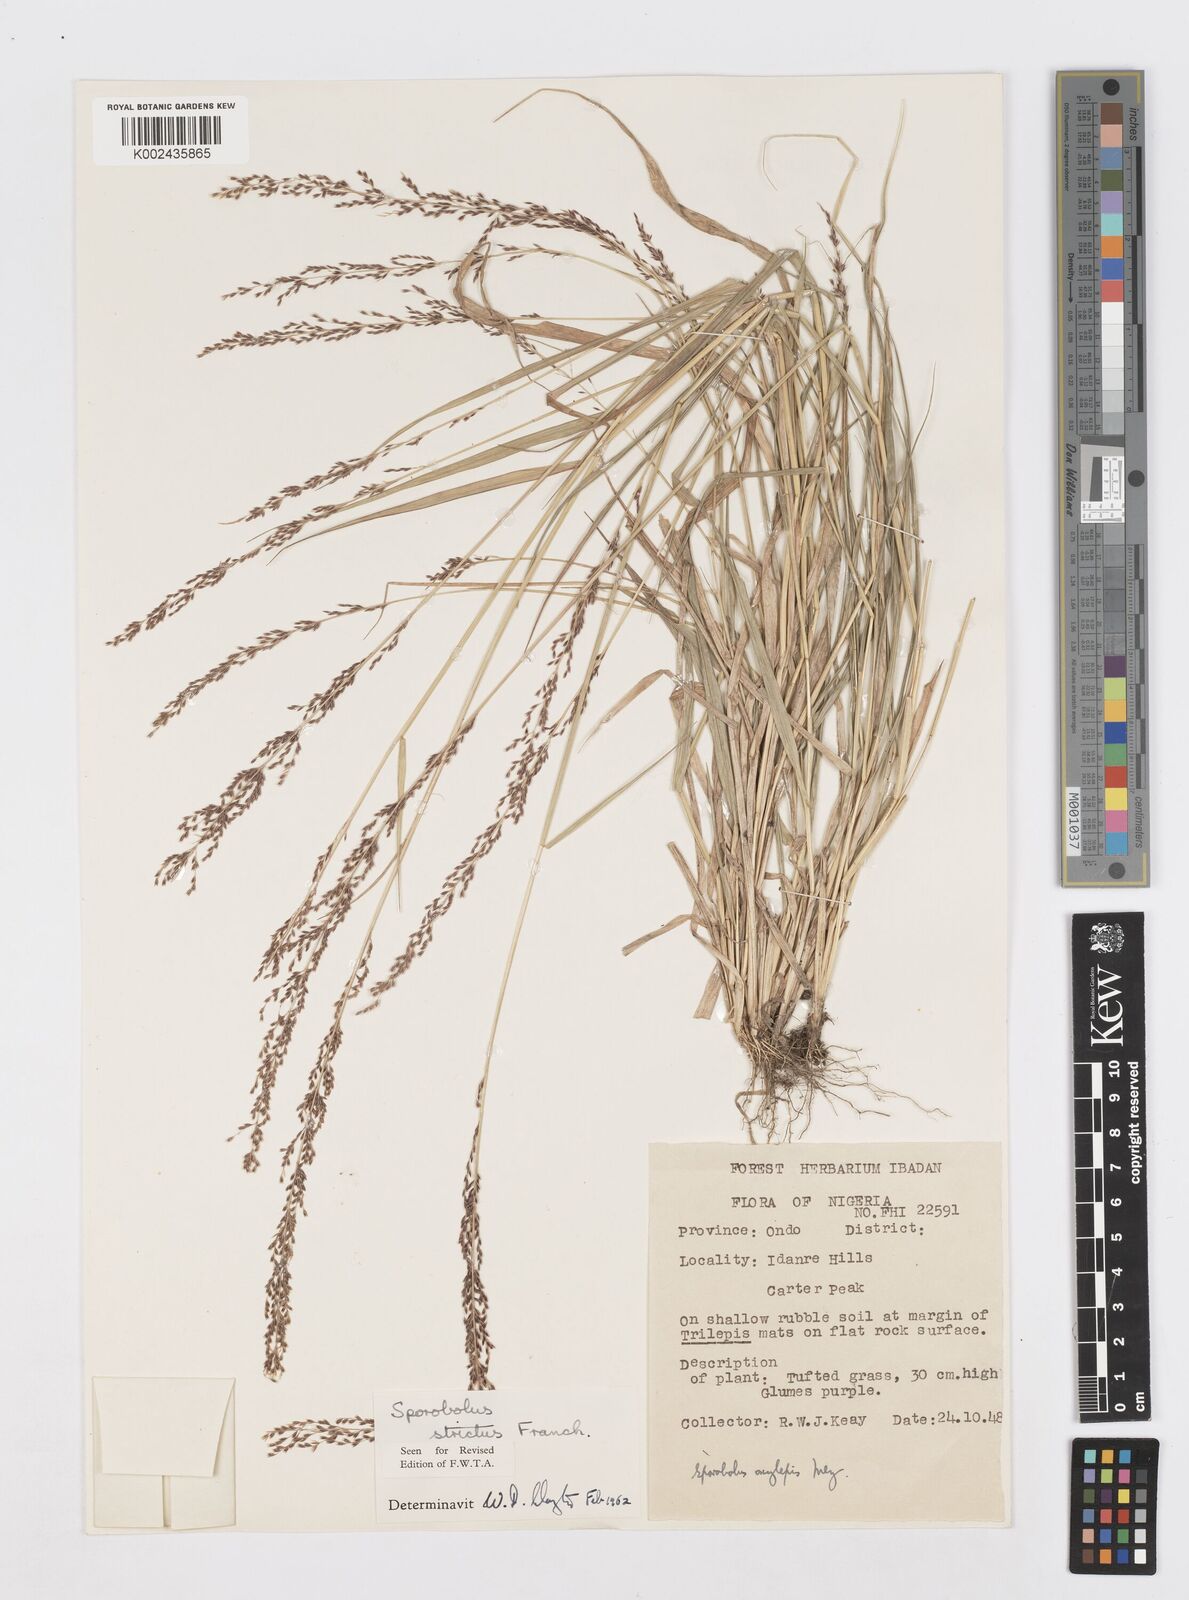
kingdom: Plantae
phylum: Tracheophyta
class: Liliopsida
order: Poales
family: Poaceae
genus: Sporobolus
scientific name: Sporobolus paniculatus
